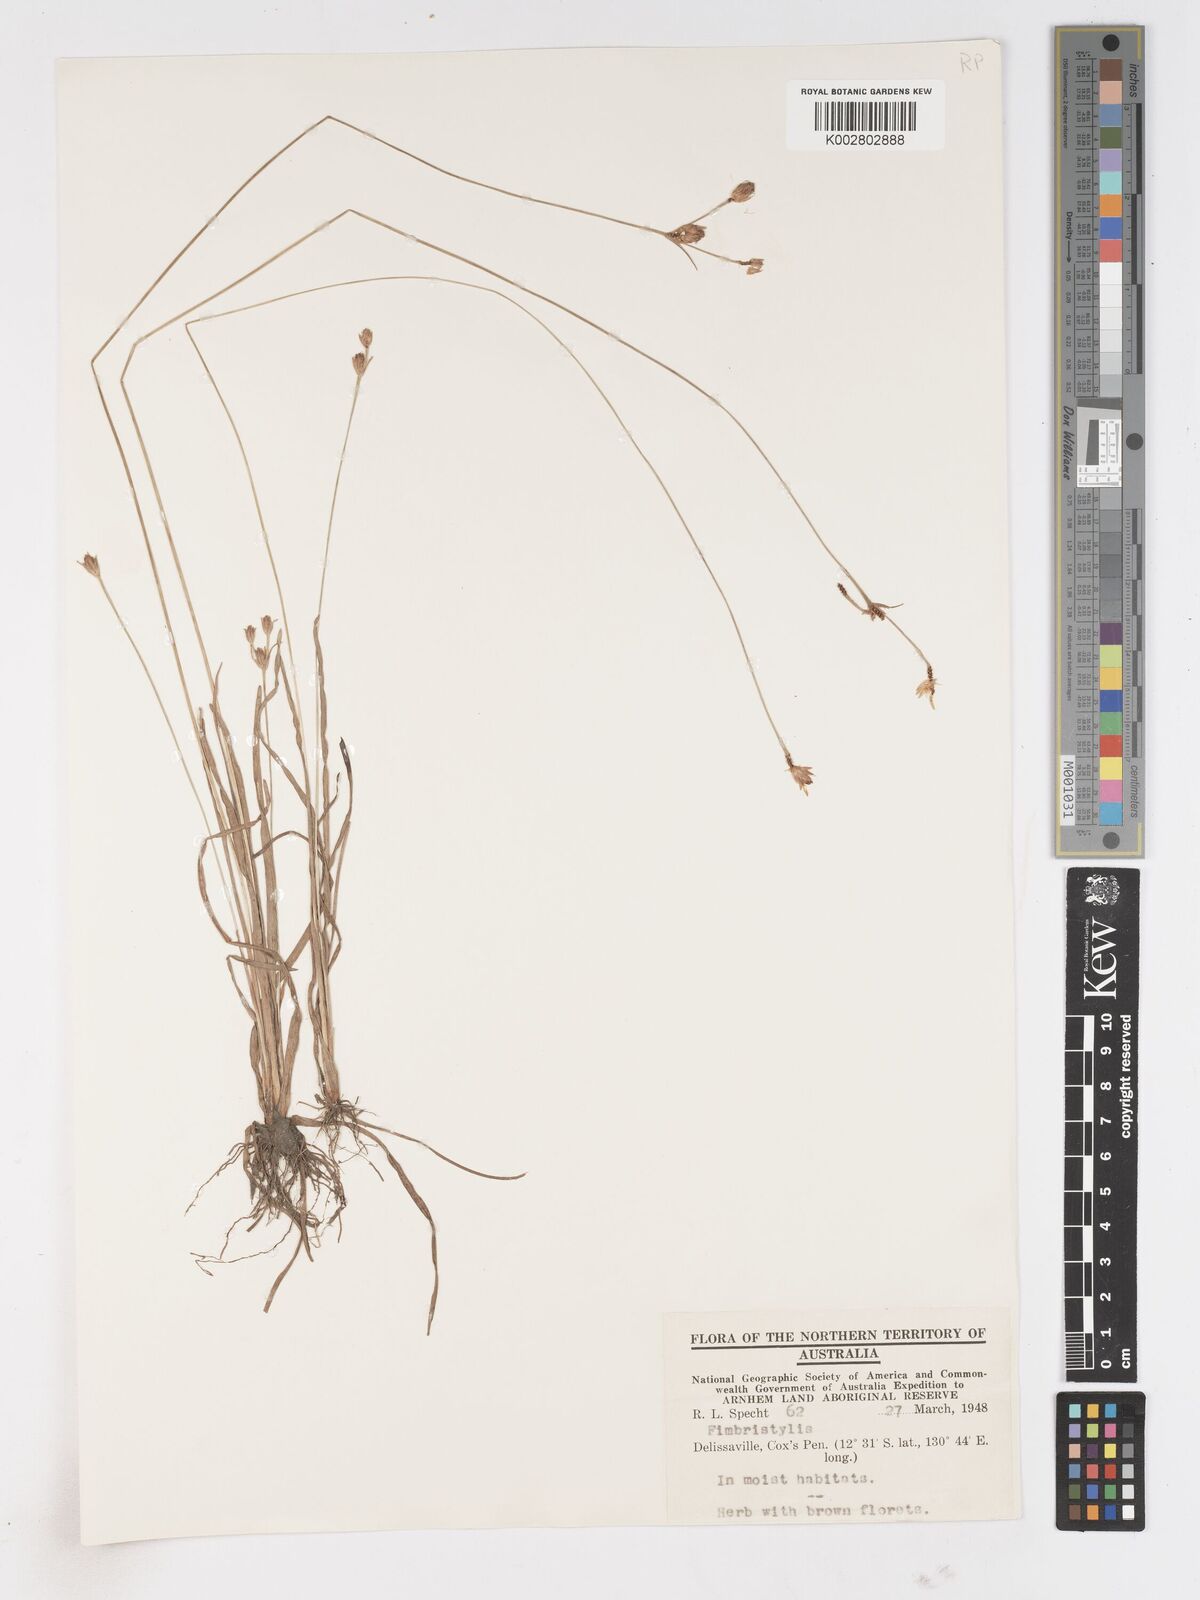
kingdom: Plantae
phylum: Tracheophyta
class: Liliopsida
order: Poales
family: Cyperaceae
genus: Fimbristylis
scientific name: Fimbristylis
